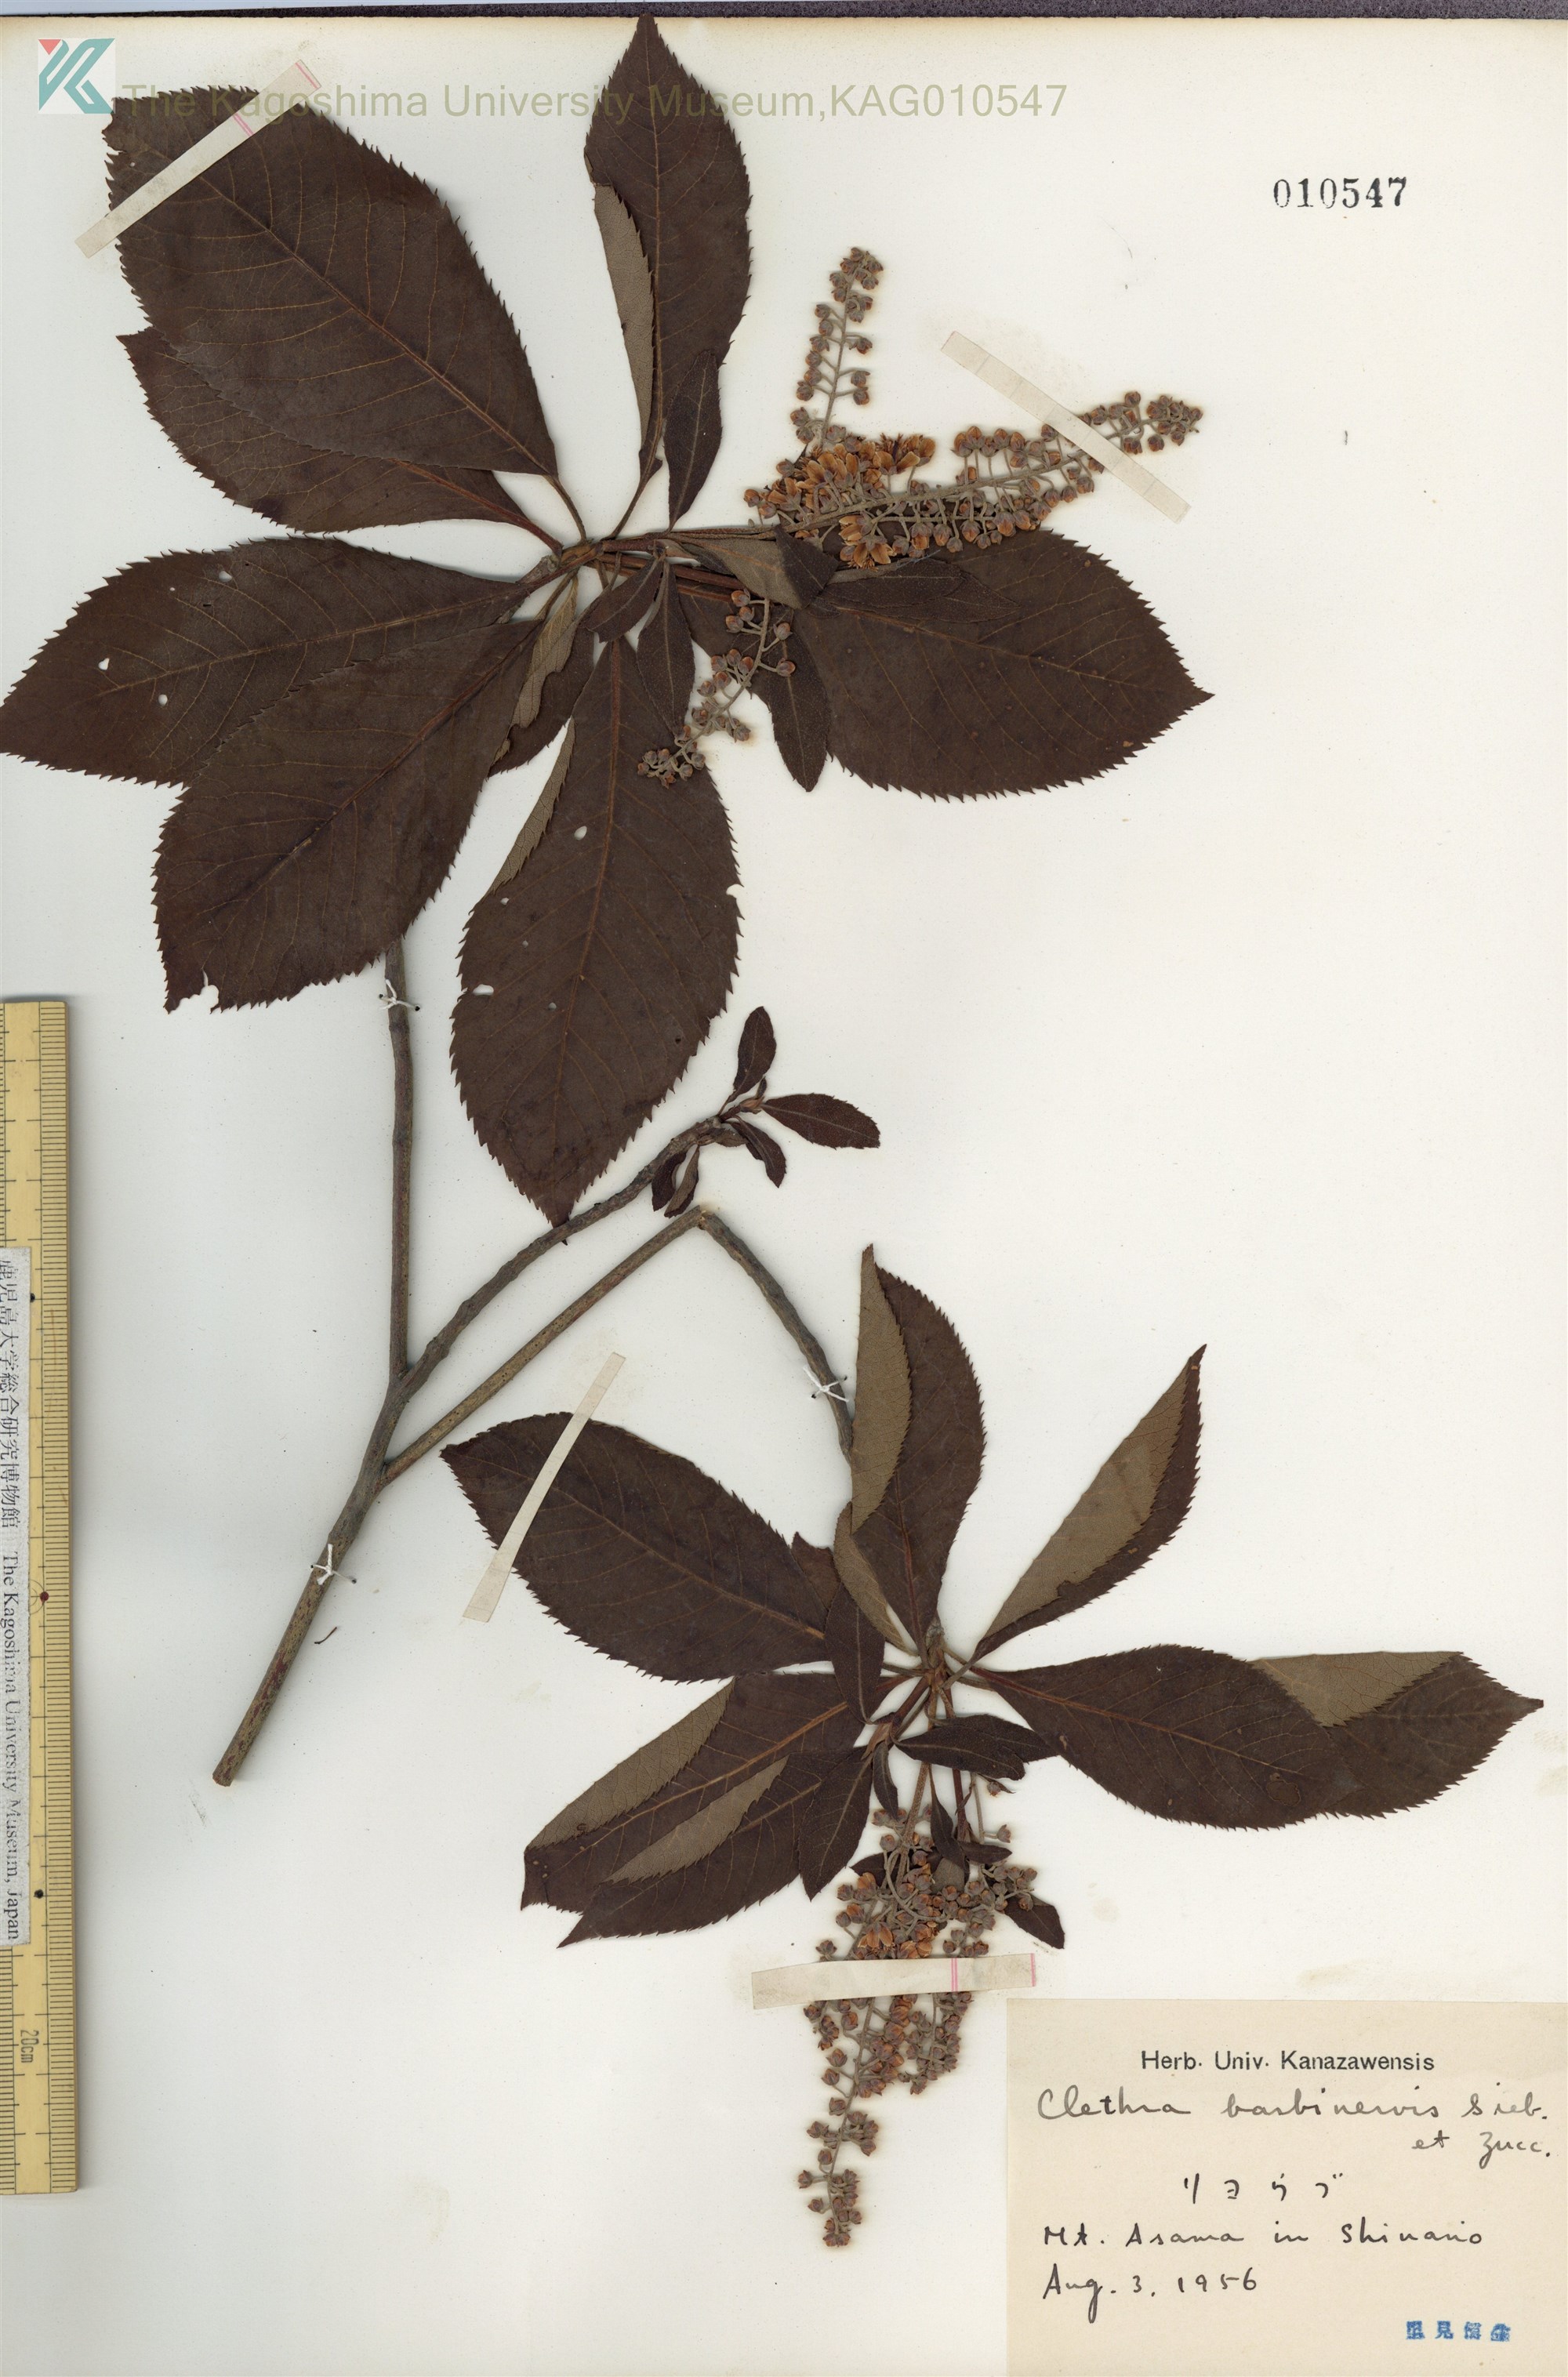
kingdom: Plantae
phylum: Tracheophyta
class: Magnoliopsida
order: Ericales
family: Clethraceae
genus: Clethra
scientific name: Clethra barbinervis
